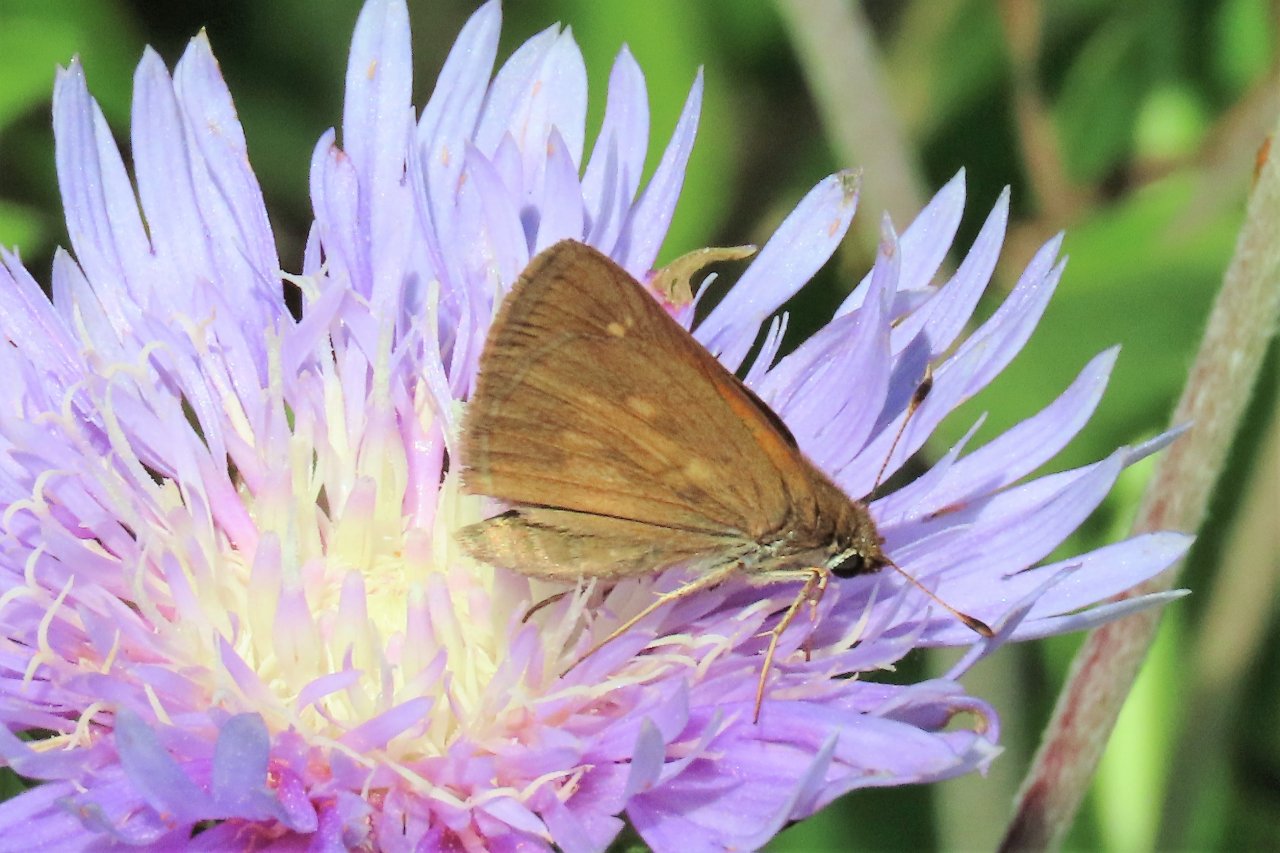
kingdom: Animalia
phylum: Arthropoda
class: Insecta
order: Lepidoptera
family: Hesperiidae
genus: Poanes
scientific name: Poanes viator
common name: Broad-winged Skipper
